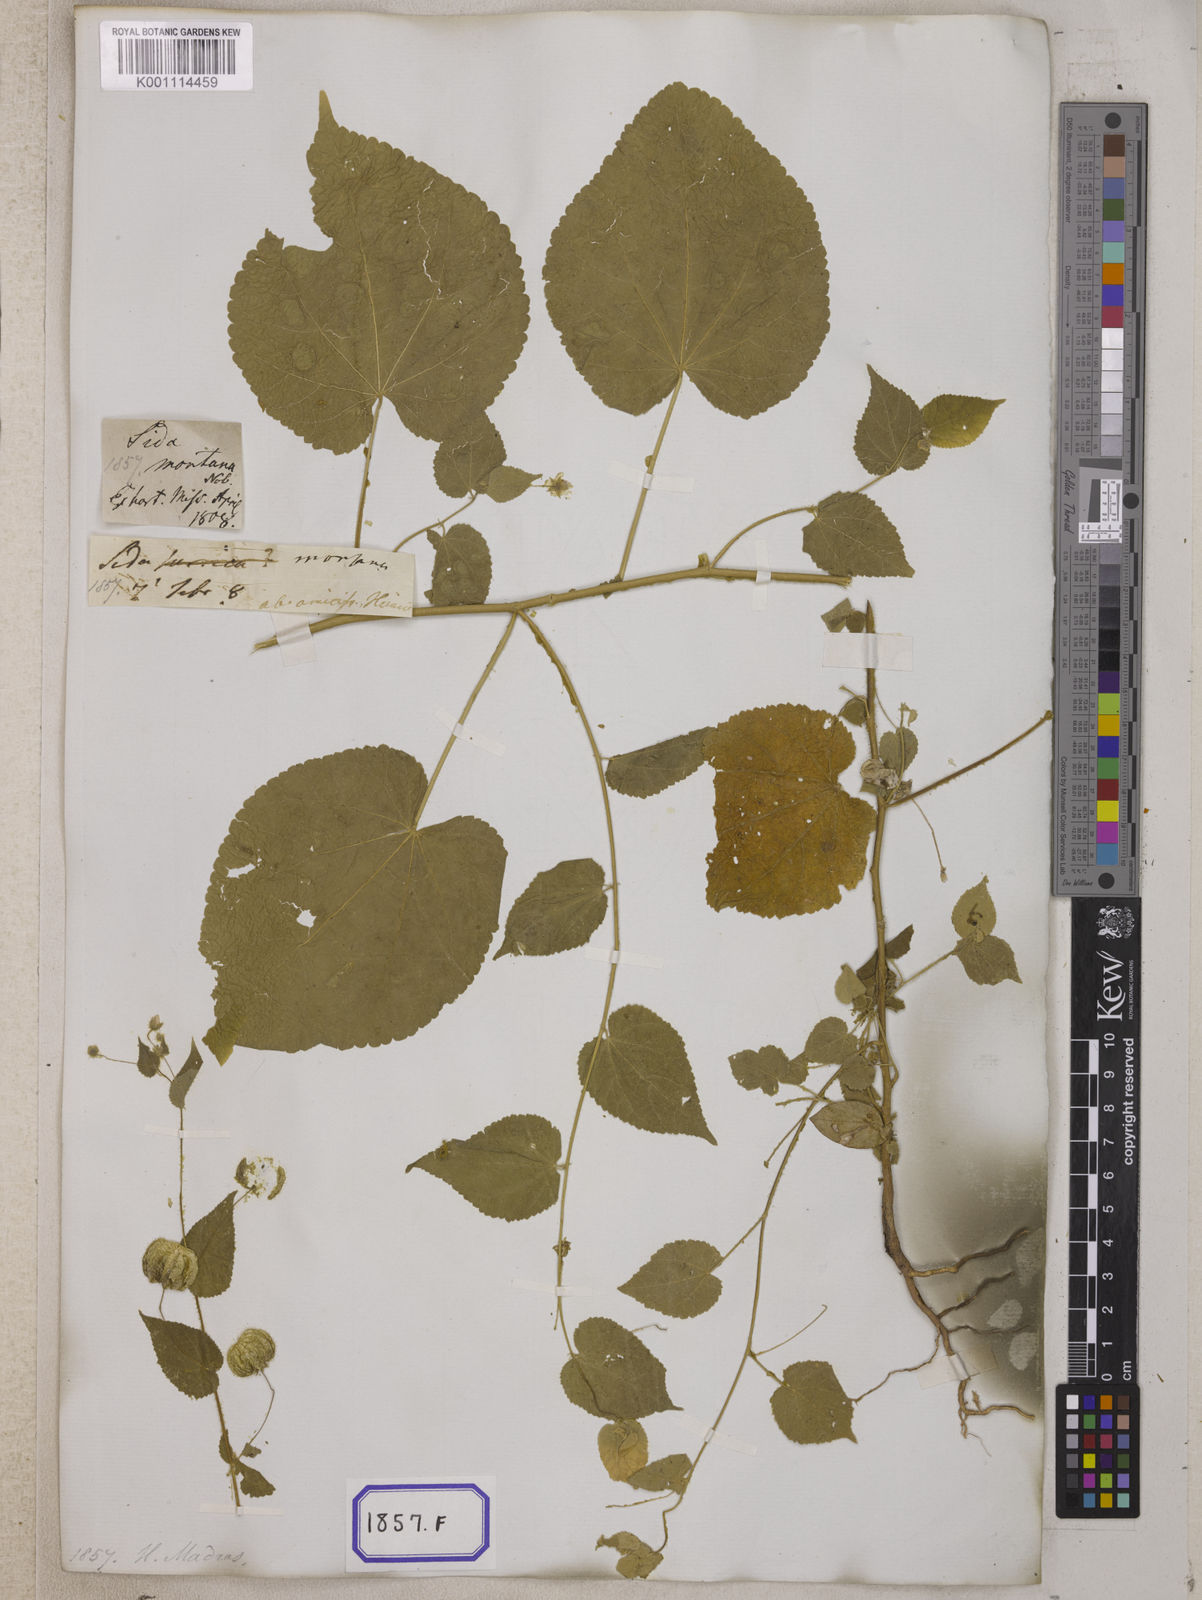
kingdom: Plantae
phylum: Tracheophyta
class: Magnoliopsida
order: Malvales
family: Malvaceae
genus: Herissantia
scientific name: Herissantia crispa
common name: Bladdermallow
